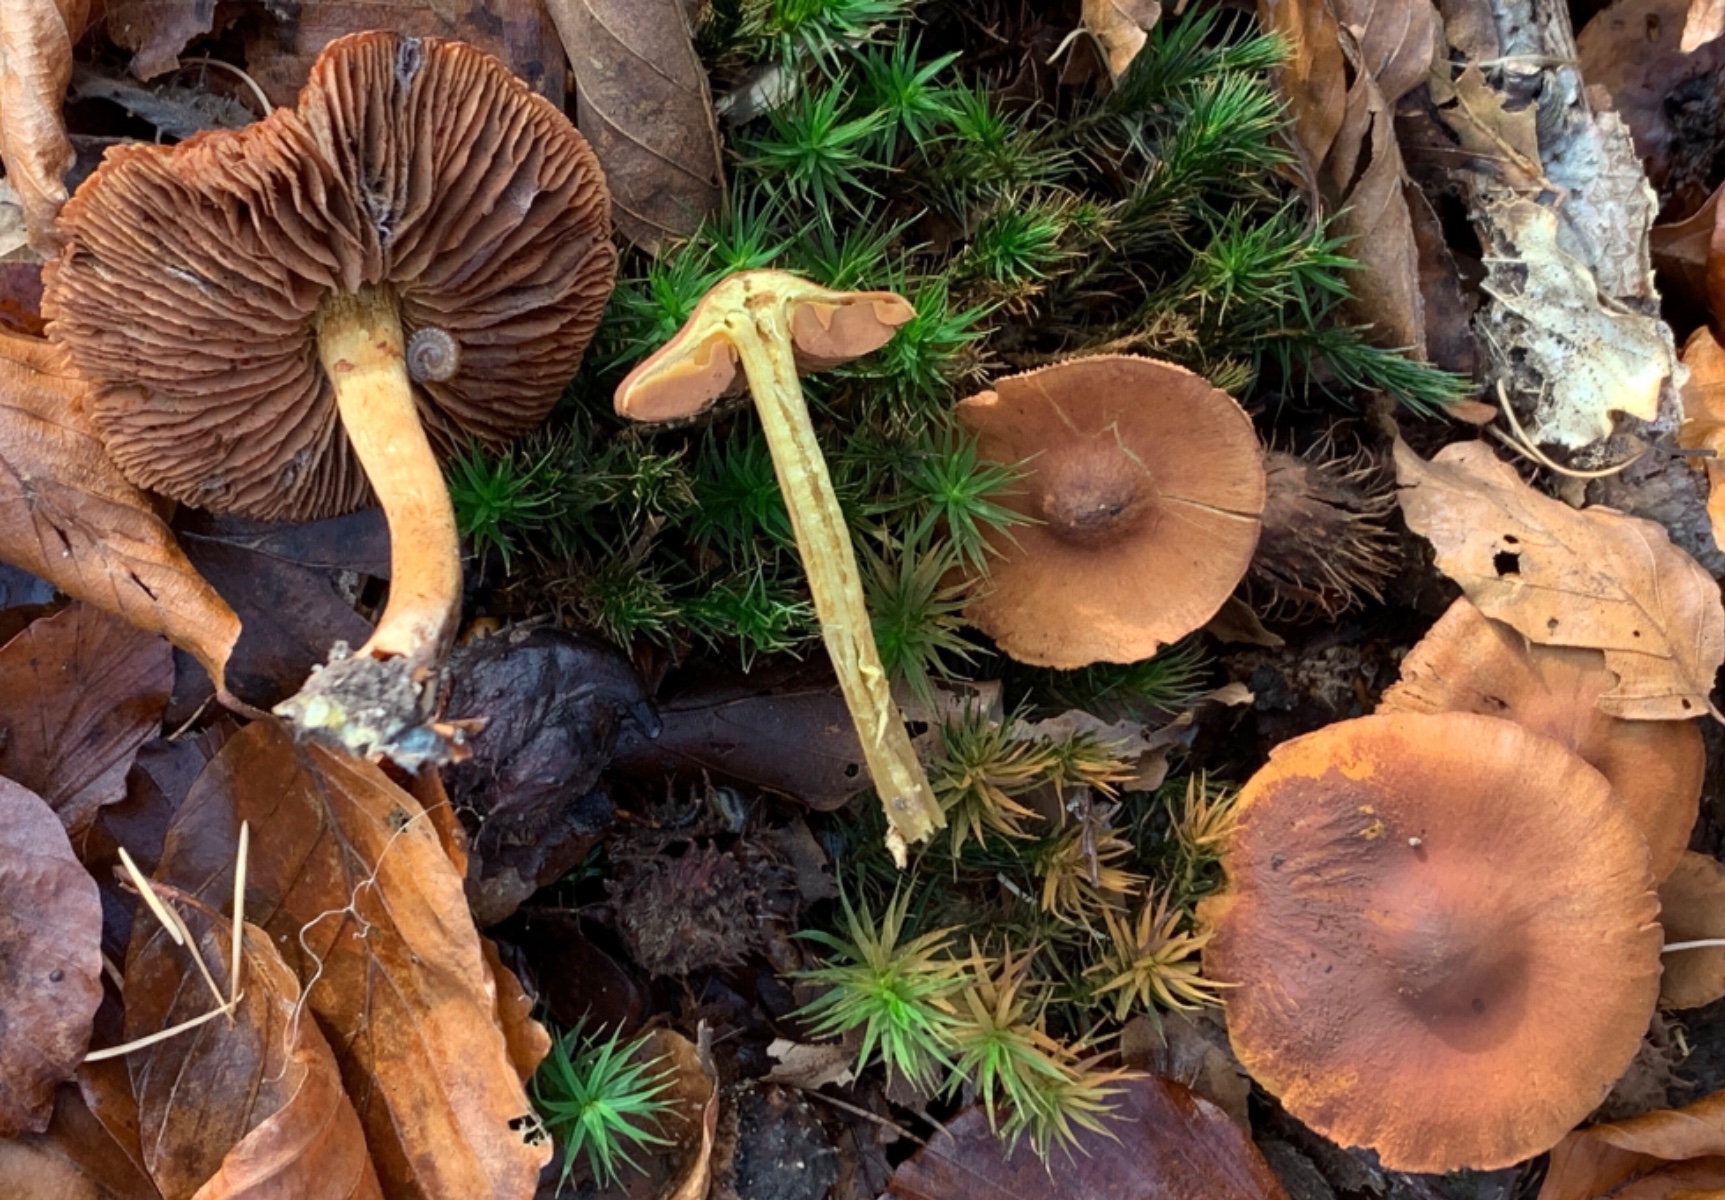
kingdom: Fungi
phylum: Basidiomycota
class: Agaricomycetes
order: Agaricales
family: Cortinariaceae
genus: Cortinarius
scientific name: Cortinarius malicorius
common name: grønkødet slørhat
